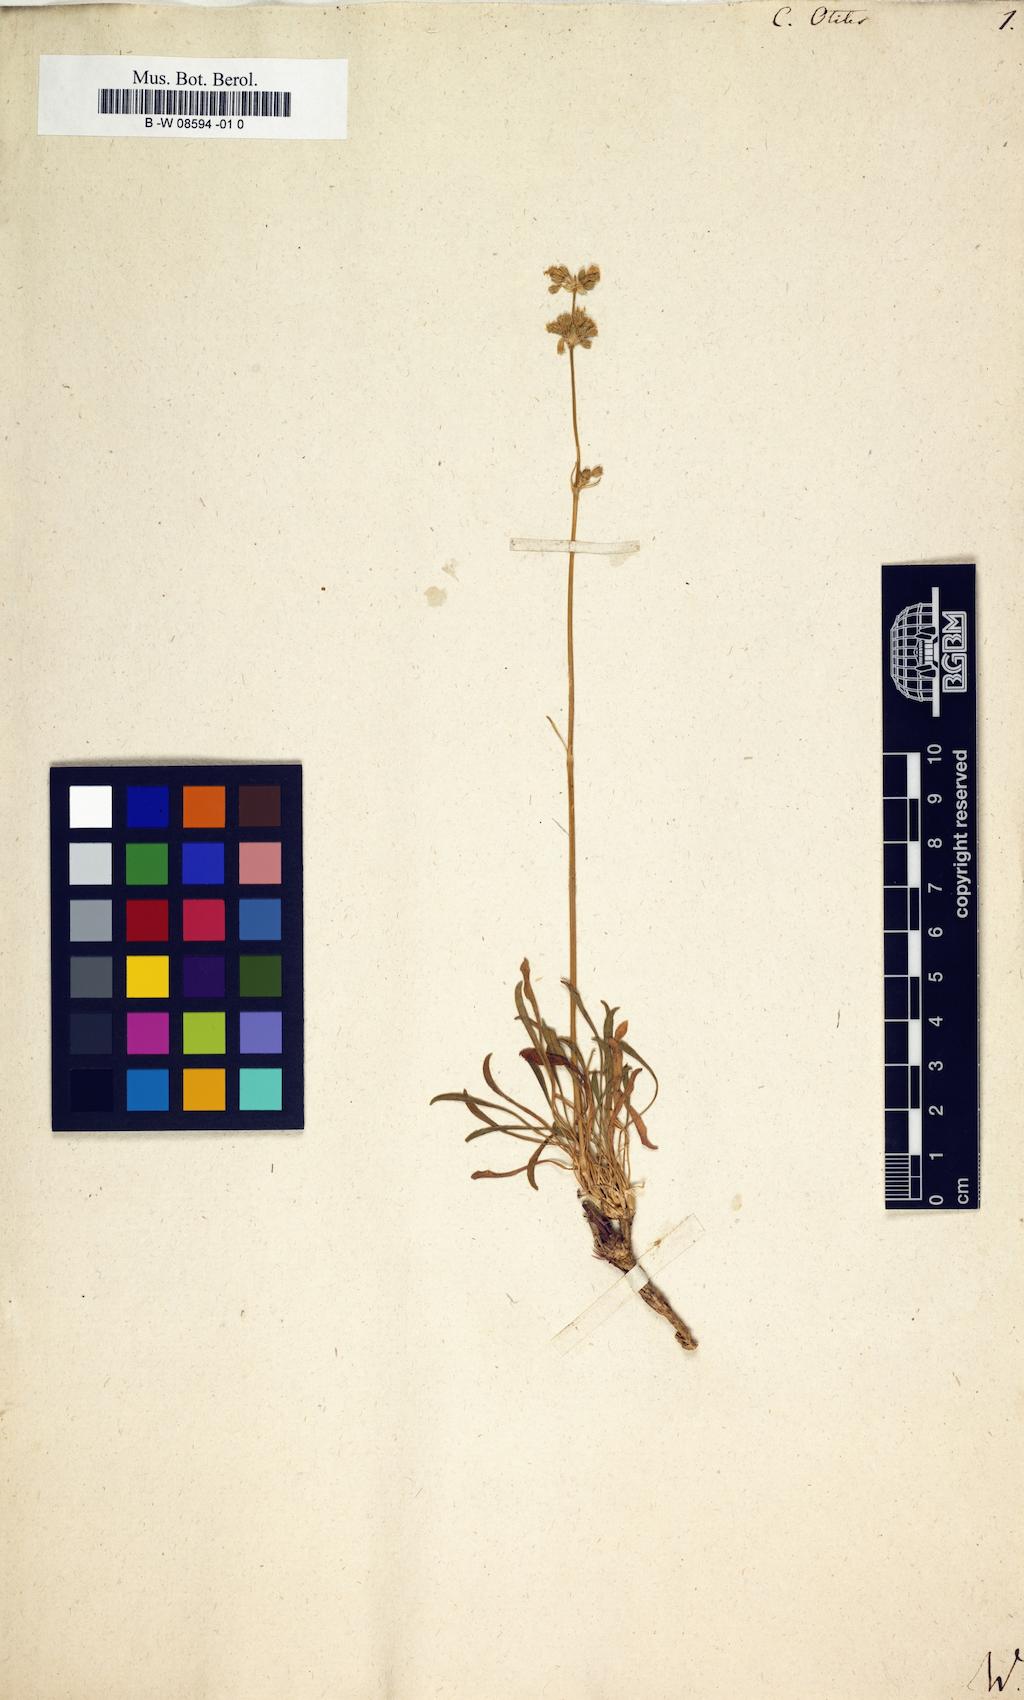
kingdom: Plantae
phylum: Tracheophyta
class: Magnoliopsida
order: Caryophyllales
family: Caryophyllaceae
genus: Silene
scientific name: Silene otites
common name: Spanish catchfly
